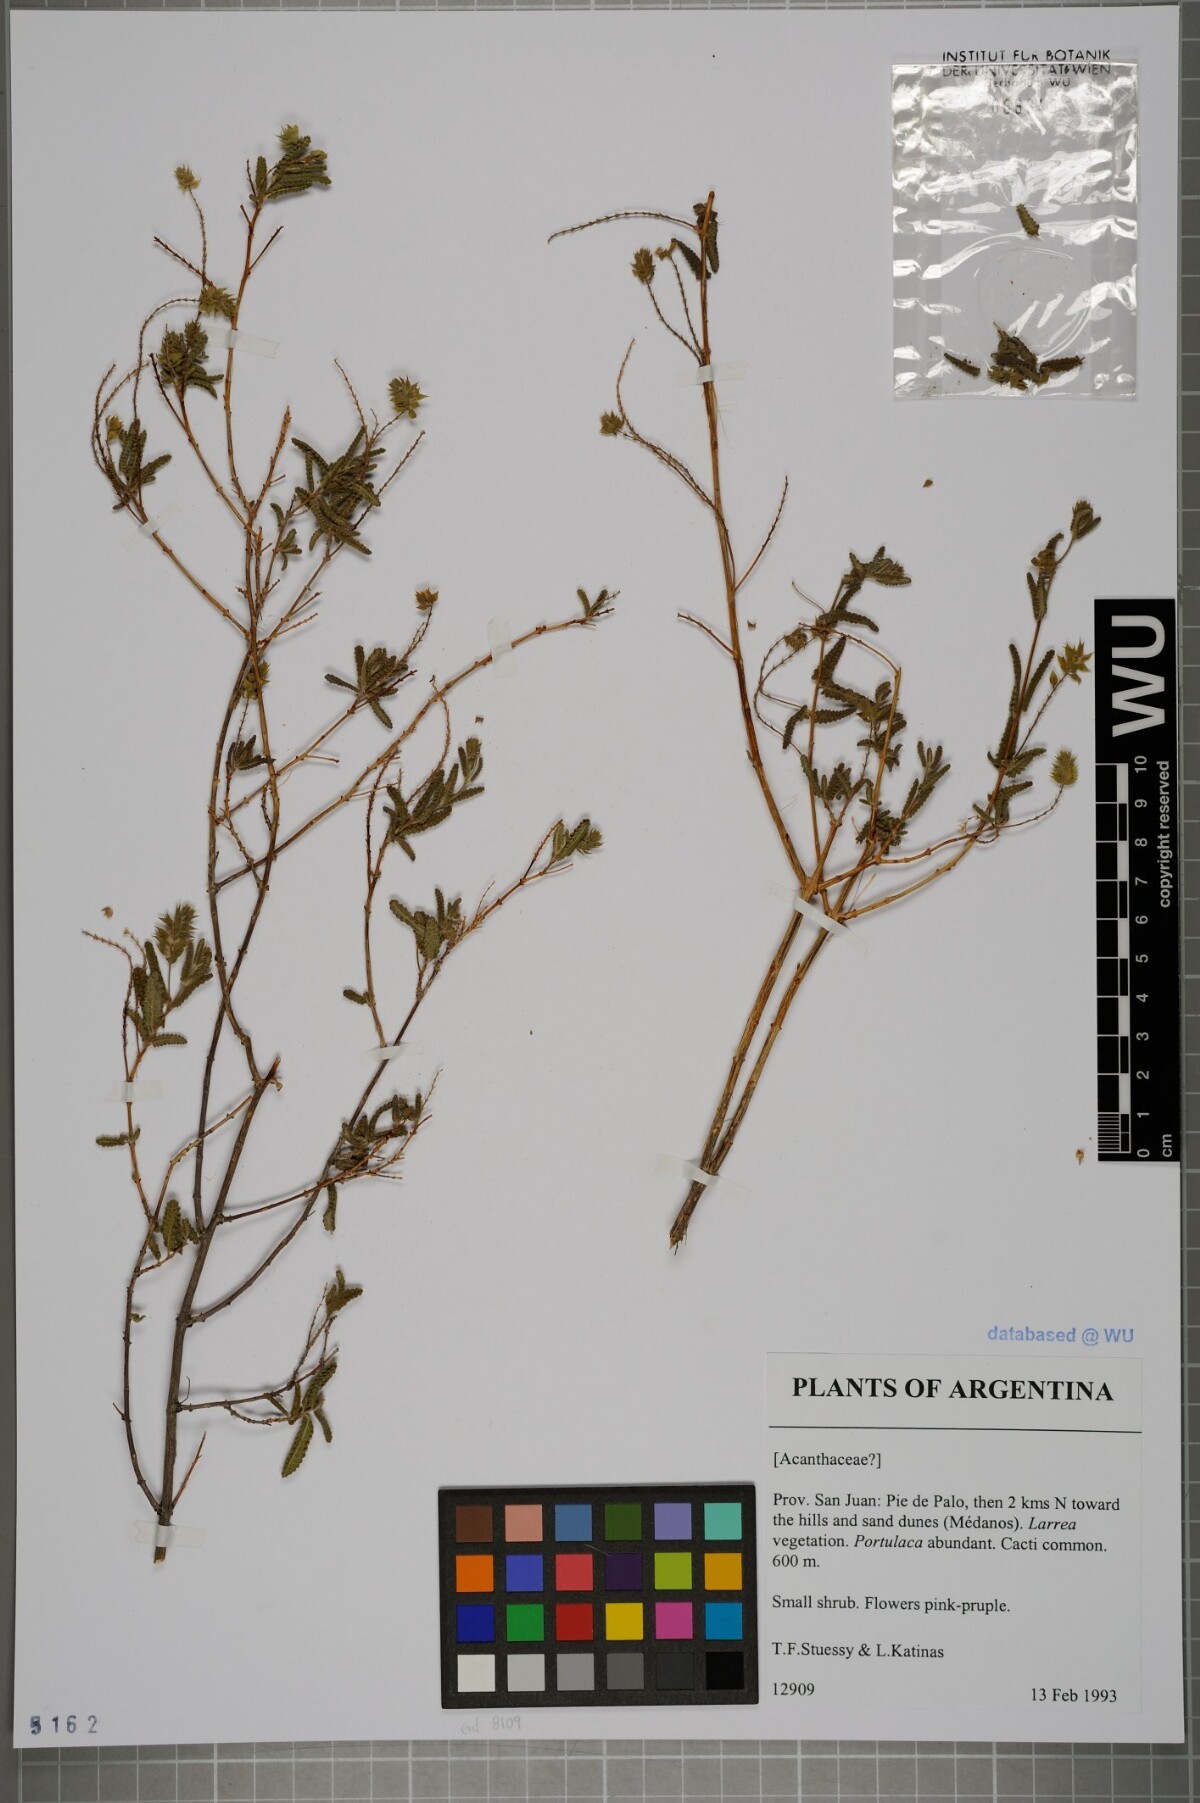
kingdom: Plantae
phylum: Tracheophyta
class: Magnoliopsida
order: Lamiales
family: Acanthaceae
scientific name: Acanthaceae
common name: Acanthaceae
